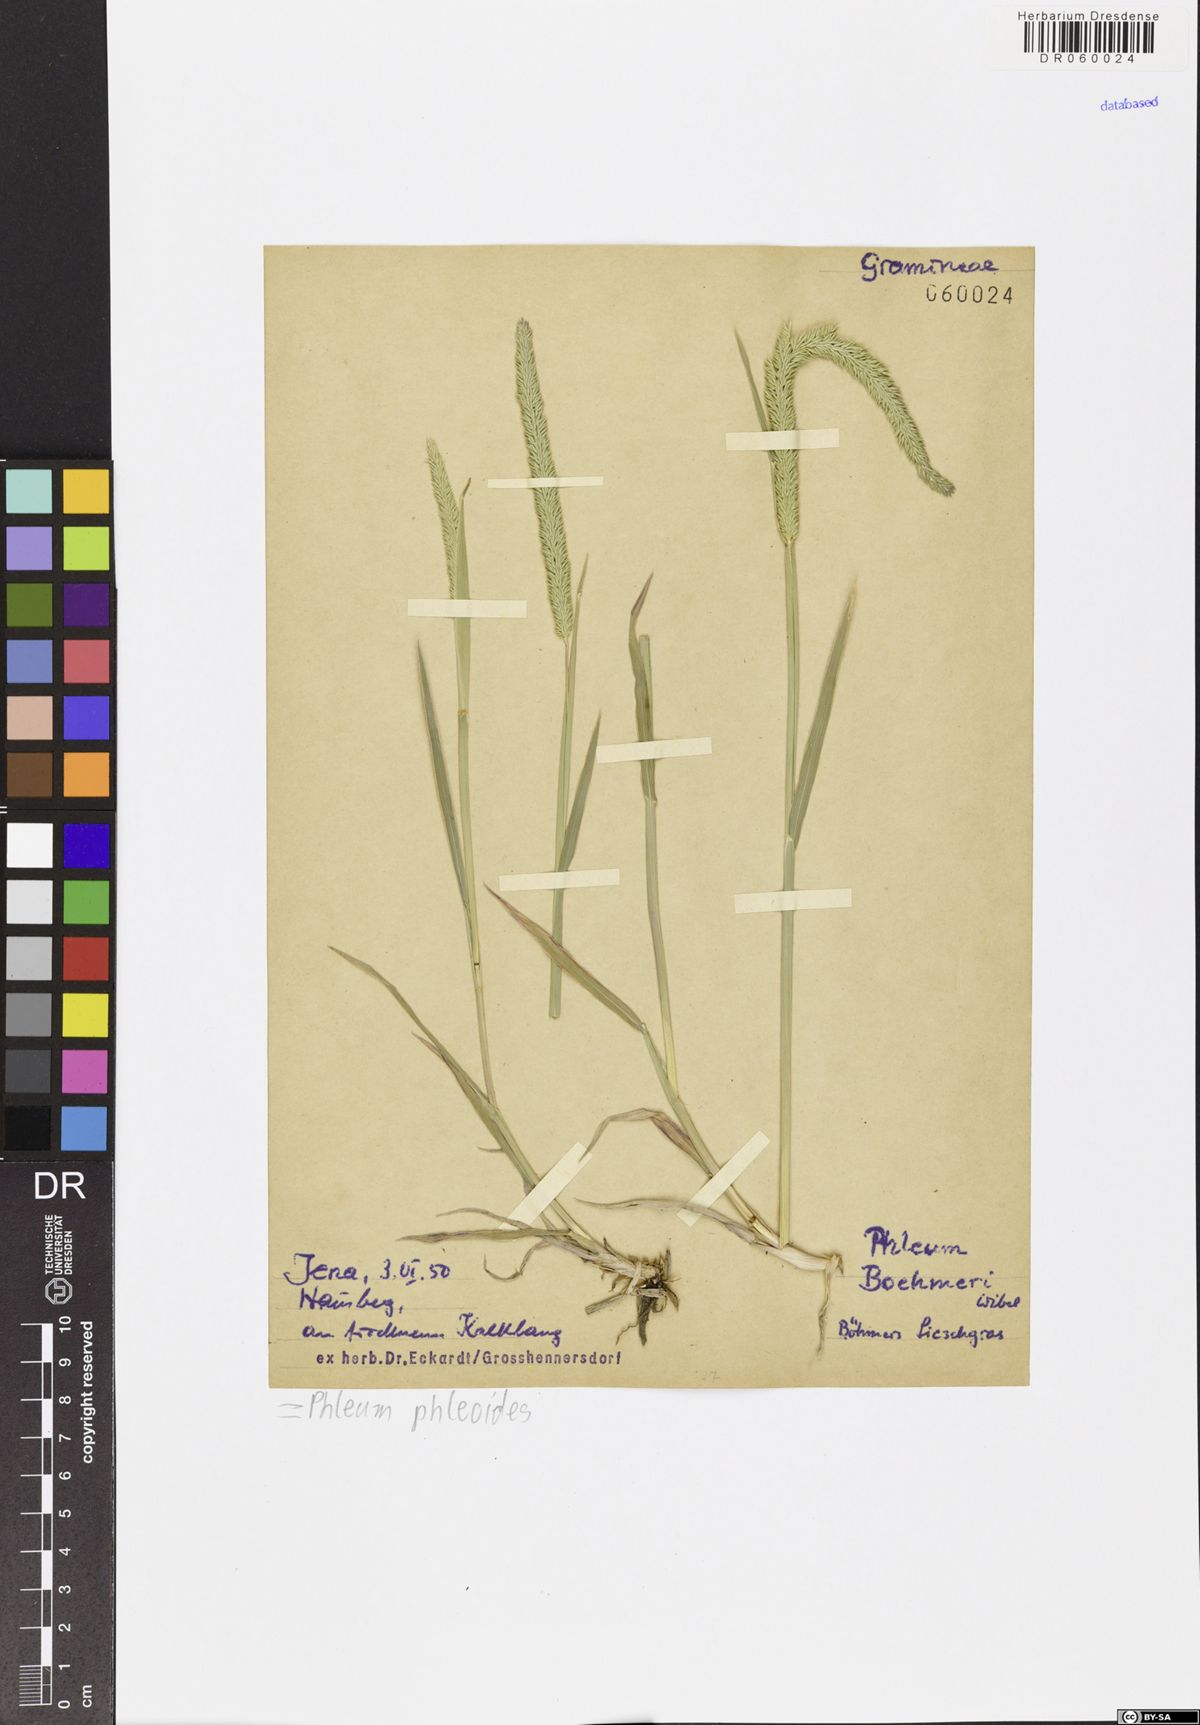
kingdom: Plantae
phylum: Tracheophyta
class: Liliopsida
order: Poales
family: Poaceae
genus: Phleum
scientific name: Phleum phleoides
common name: Purple-stem cat's-tail
